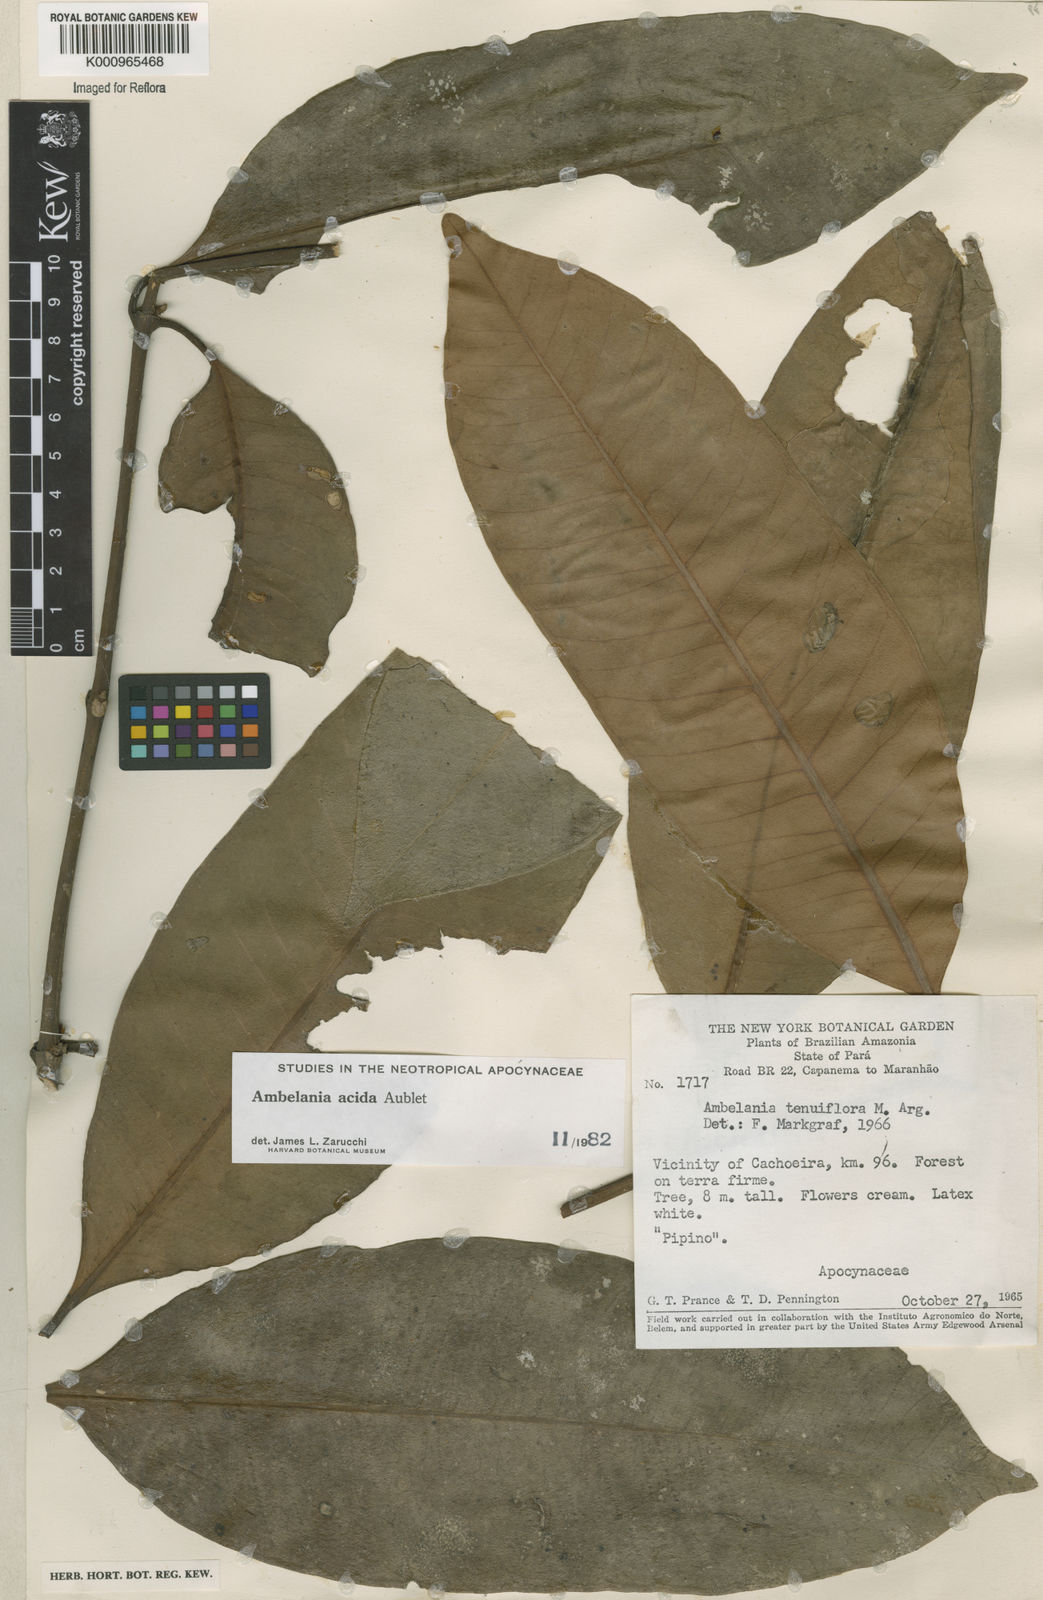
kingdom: Plantae
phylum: Tracheophyta
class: Magnoliopsida
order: Gentianales
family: Apocynaceae
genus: Ambelania
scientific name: Ambelania acida
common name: Bagasse
